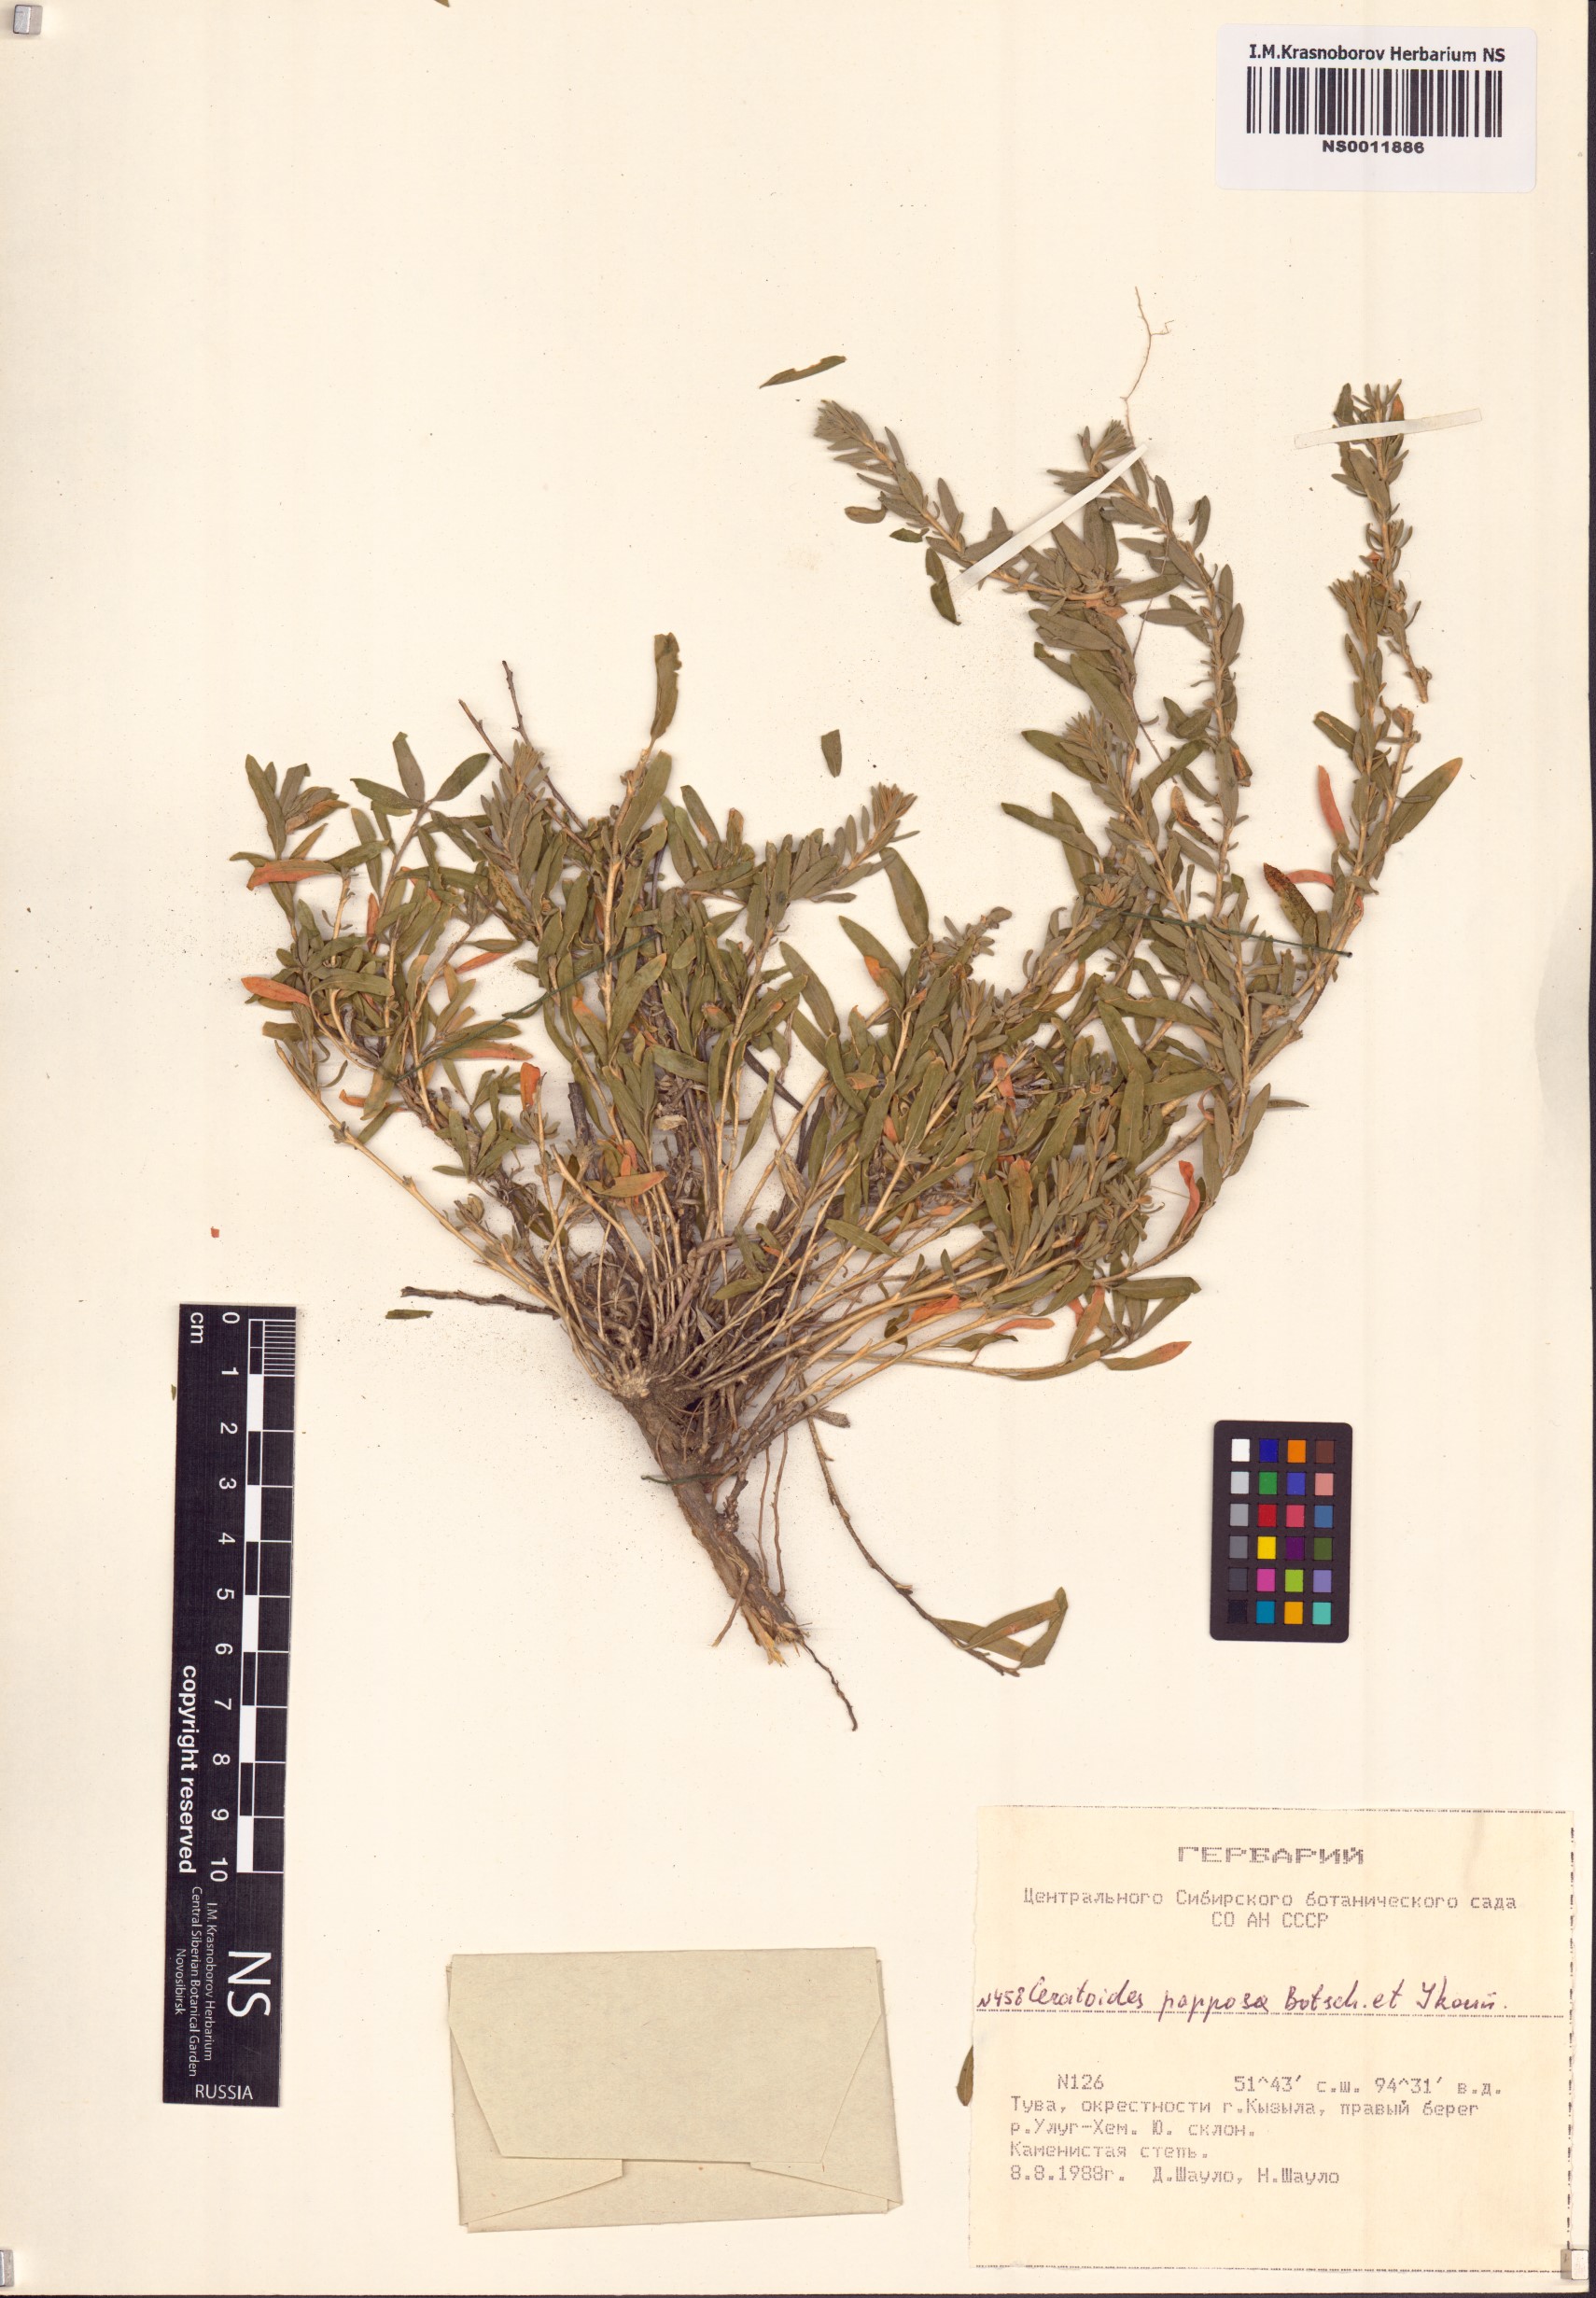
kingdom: Plantae
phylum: Tracheophyta
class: Magnoliopsida
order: Caryophyllales
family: Amaranthaceae
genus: Krascheninnikovia
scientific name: Krascheninnikovia ceratoides
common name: Pamirian winterfat
